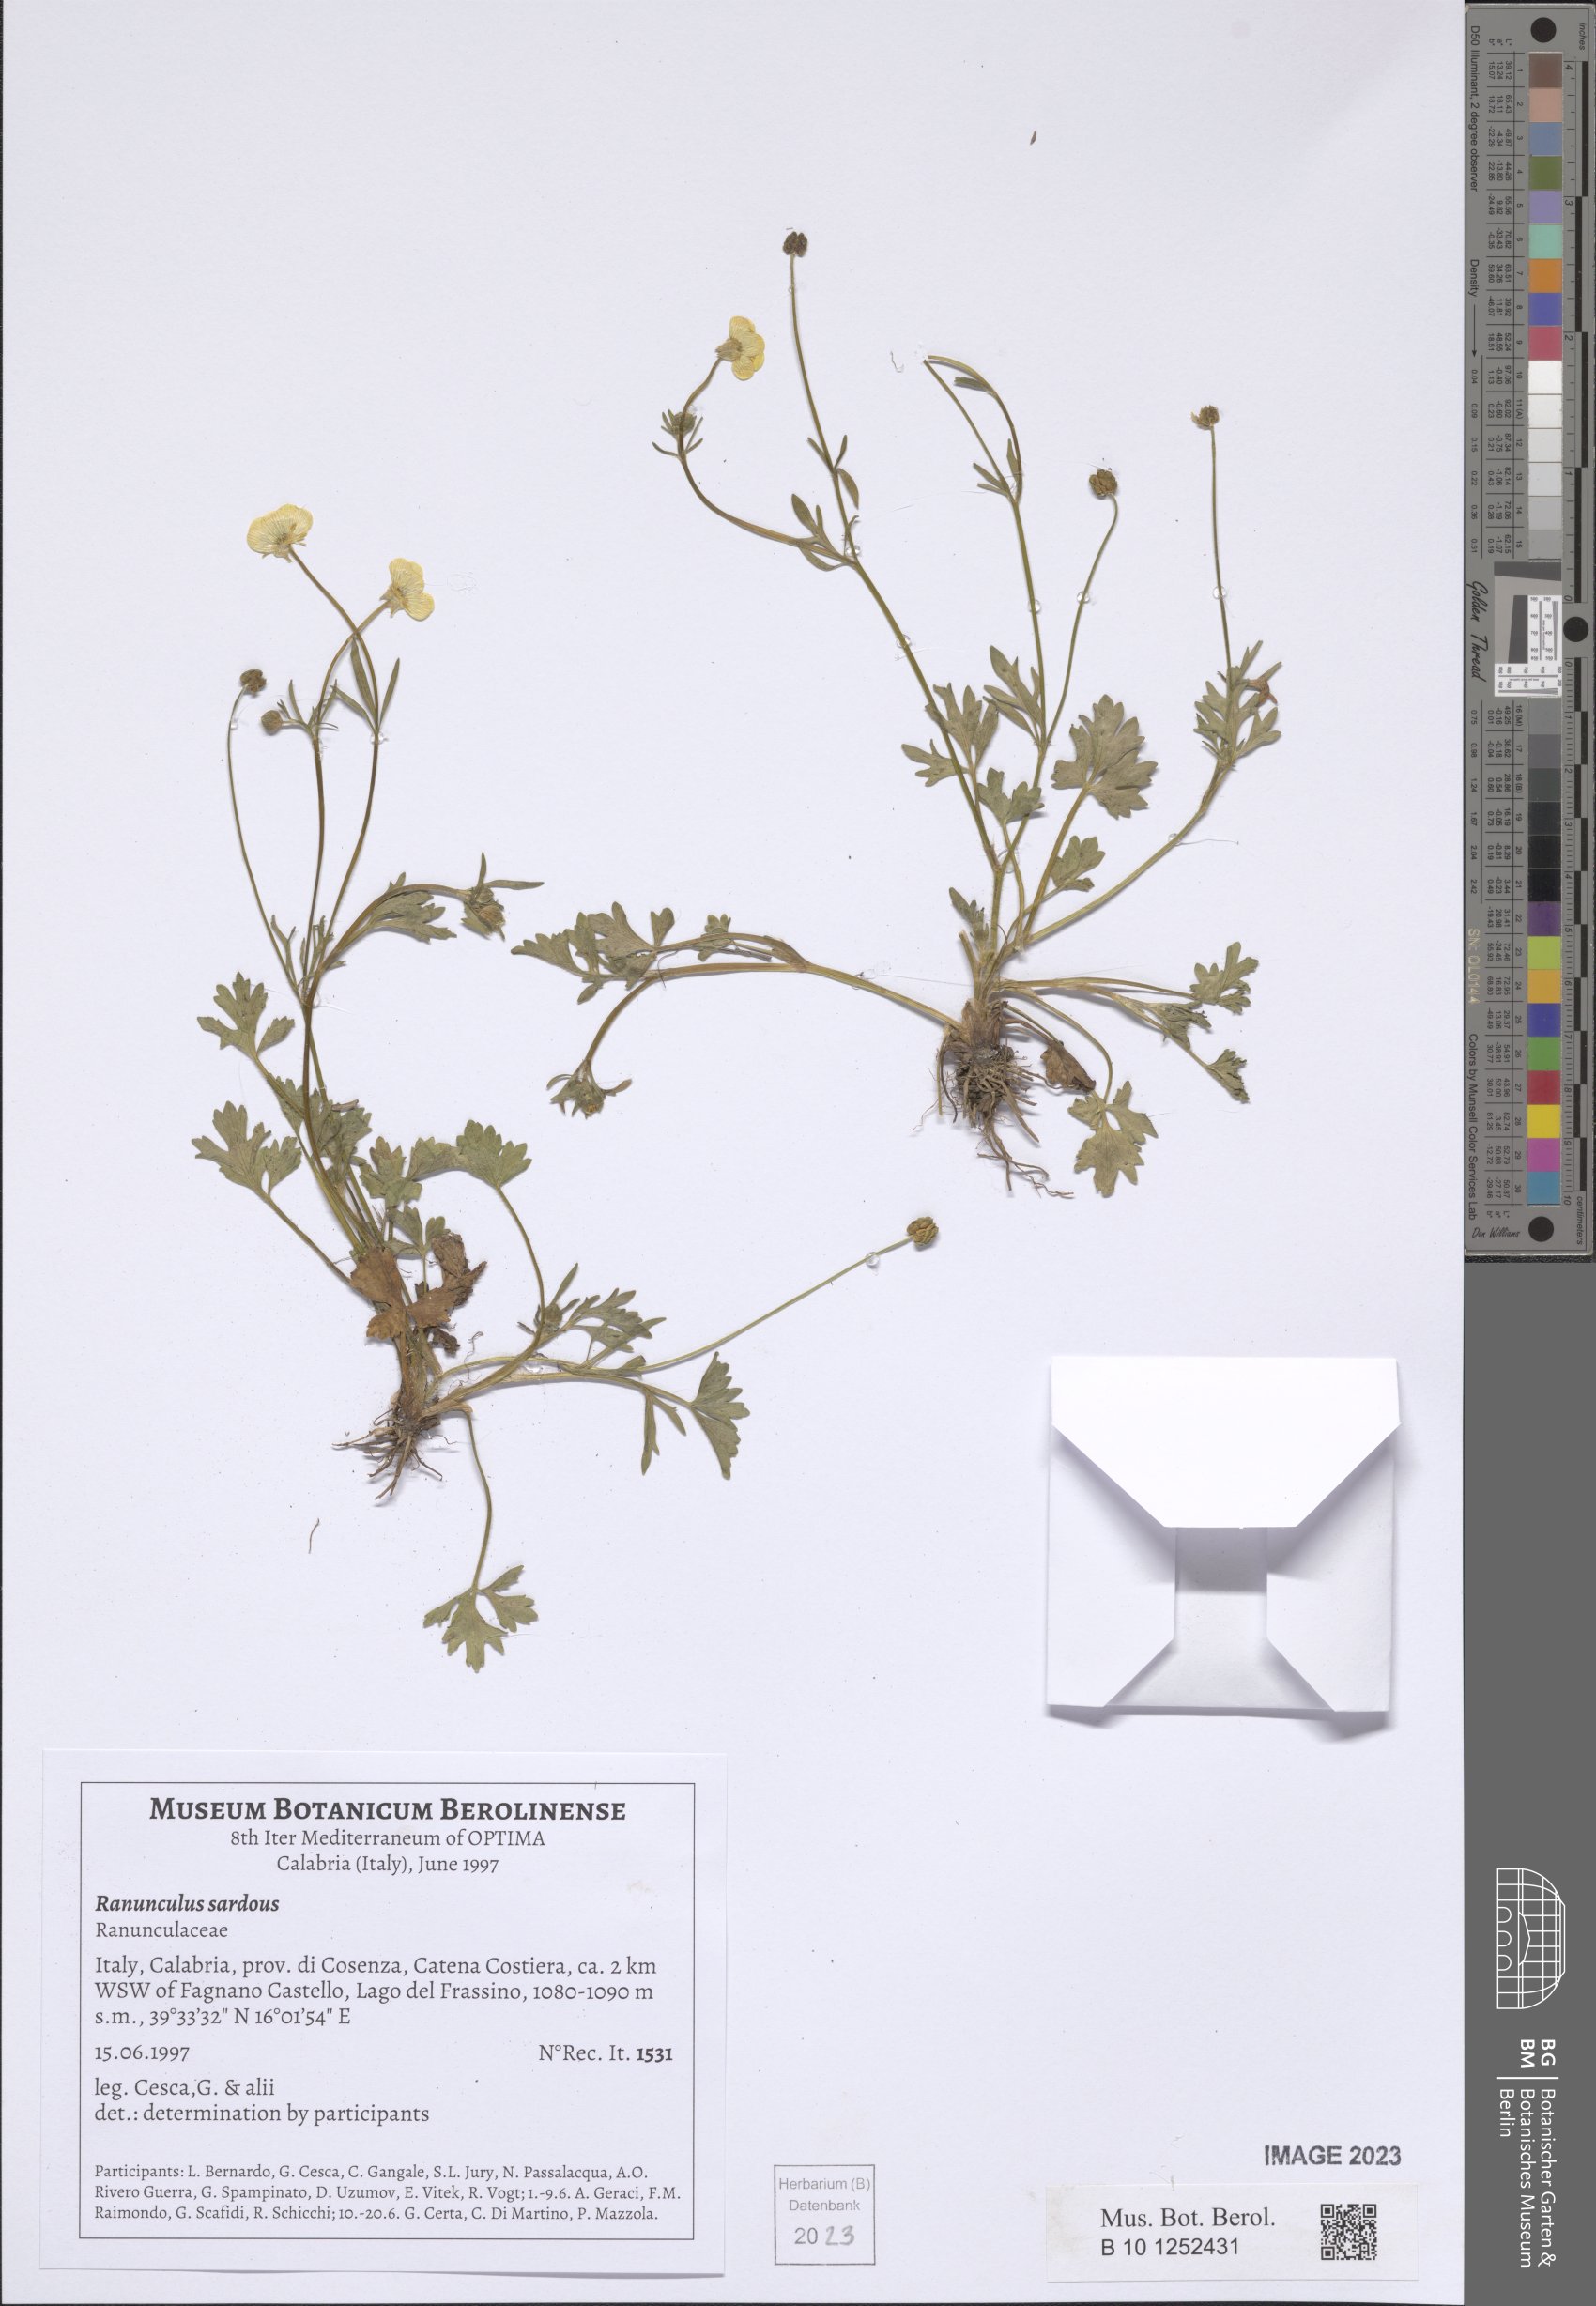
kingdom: Plantae
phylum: Tracheophyta
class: Magnoliopsida
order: Ranunculales
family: Ranunculaceae
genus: Ranunculus
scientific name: Ranunculus sardous
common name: Hairy buttercup
